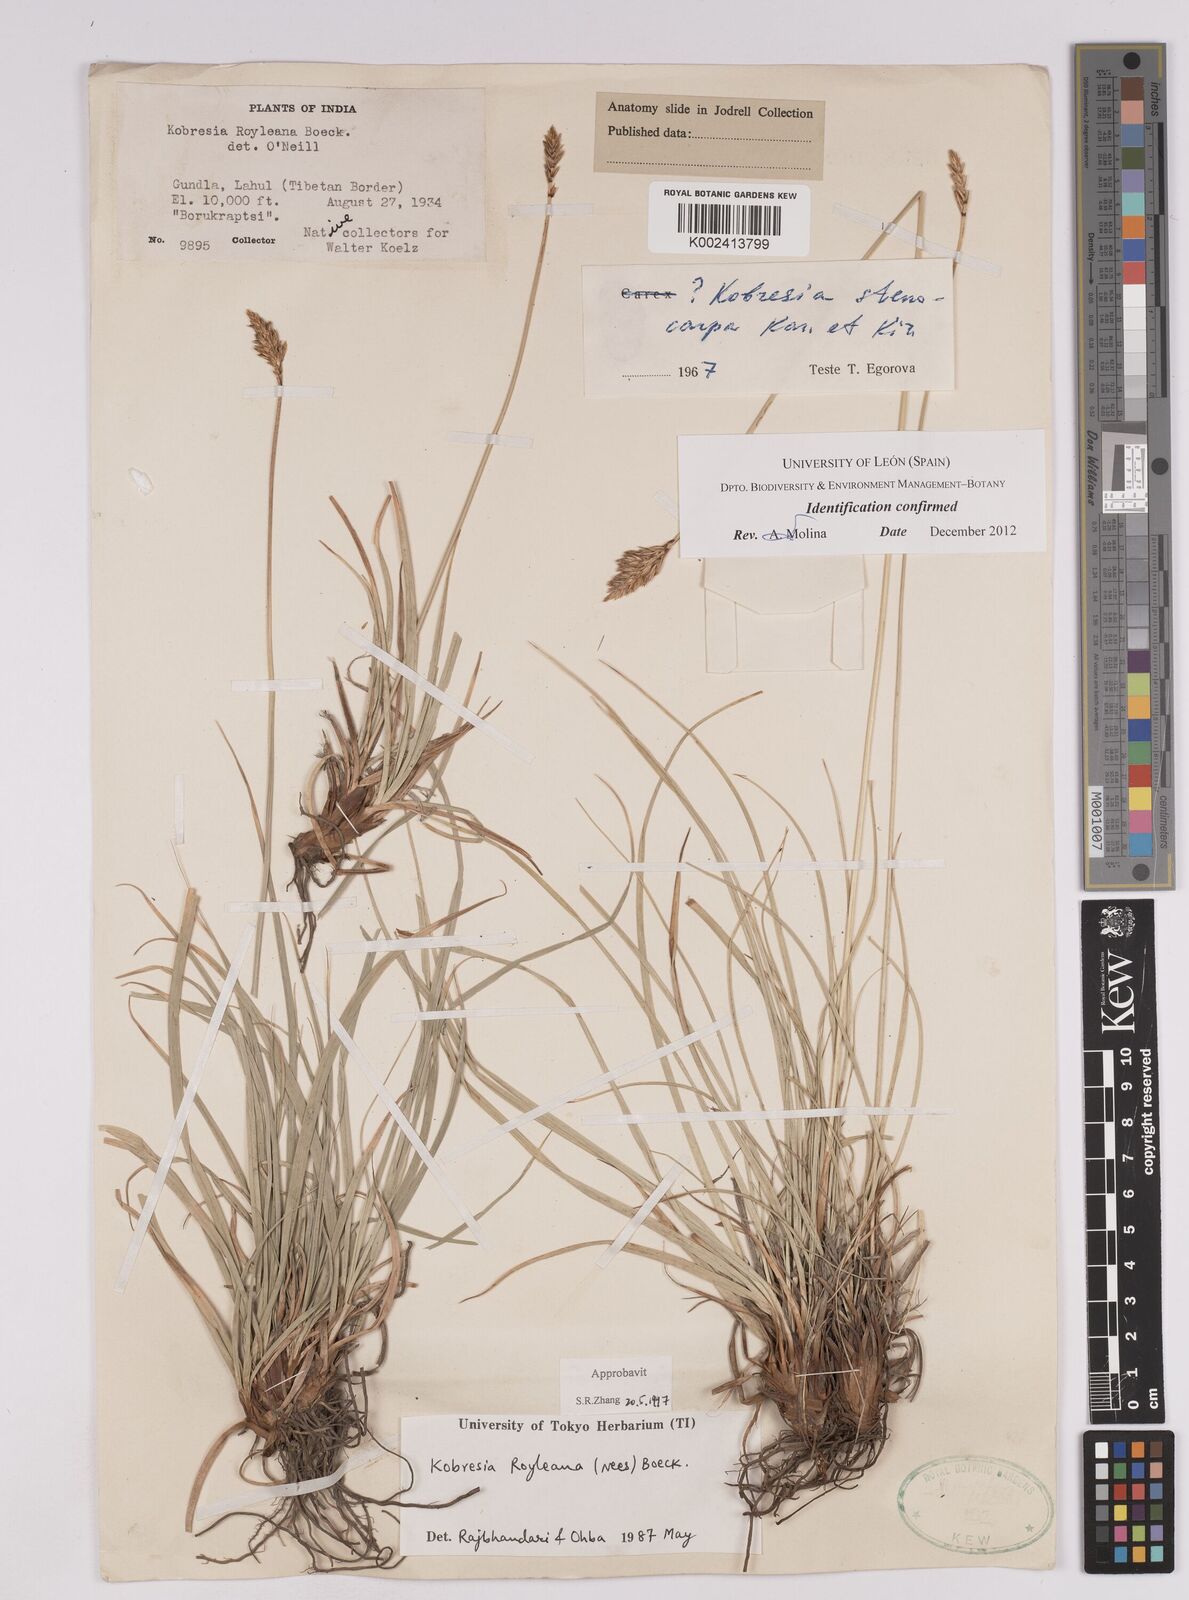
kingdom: Plantae
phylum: Tracheophyta
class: Liliopsida
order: Poales
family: Cyperaceae
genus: Carex
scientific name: Carex kokanica
